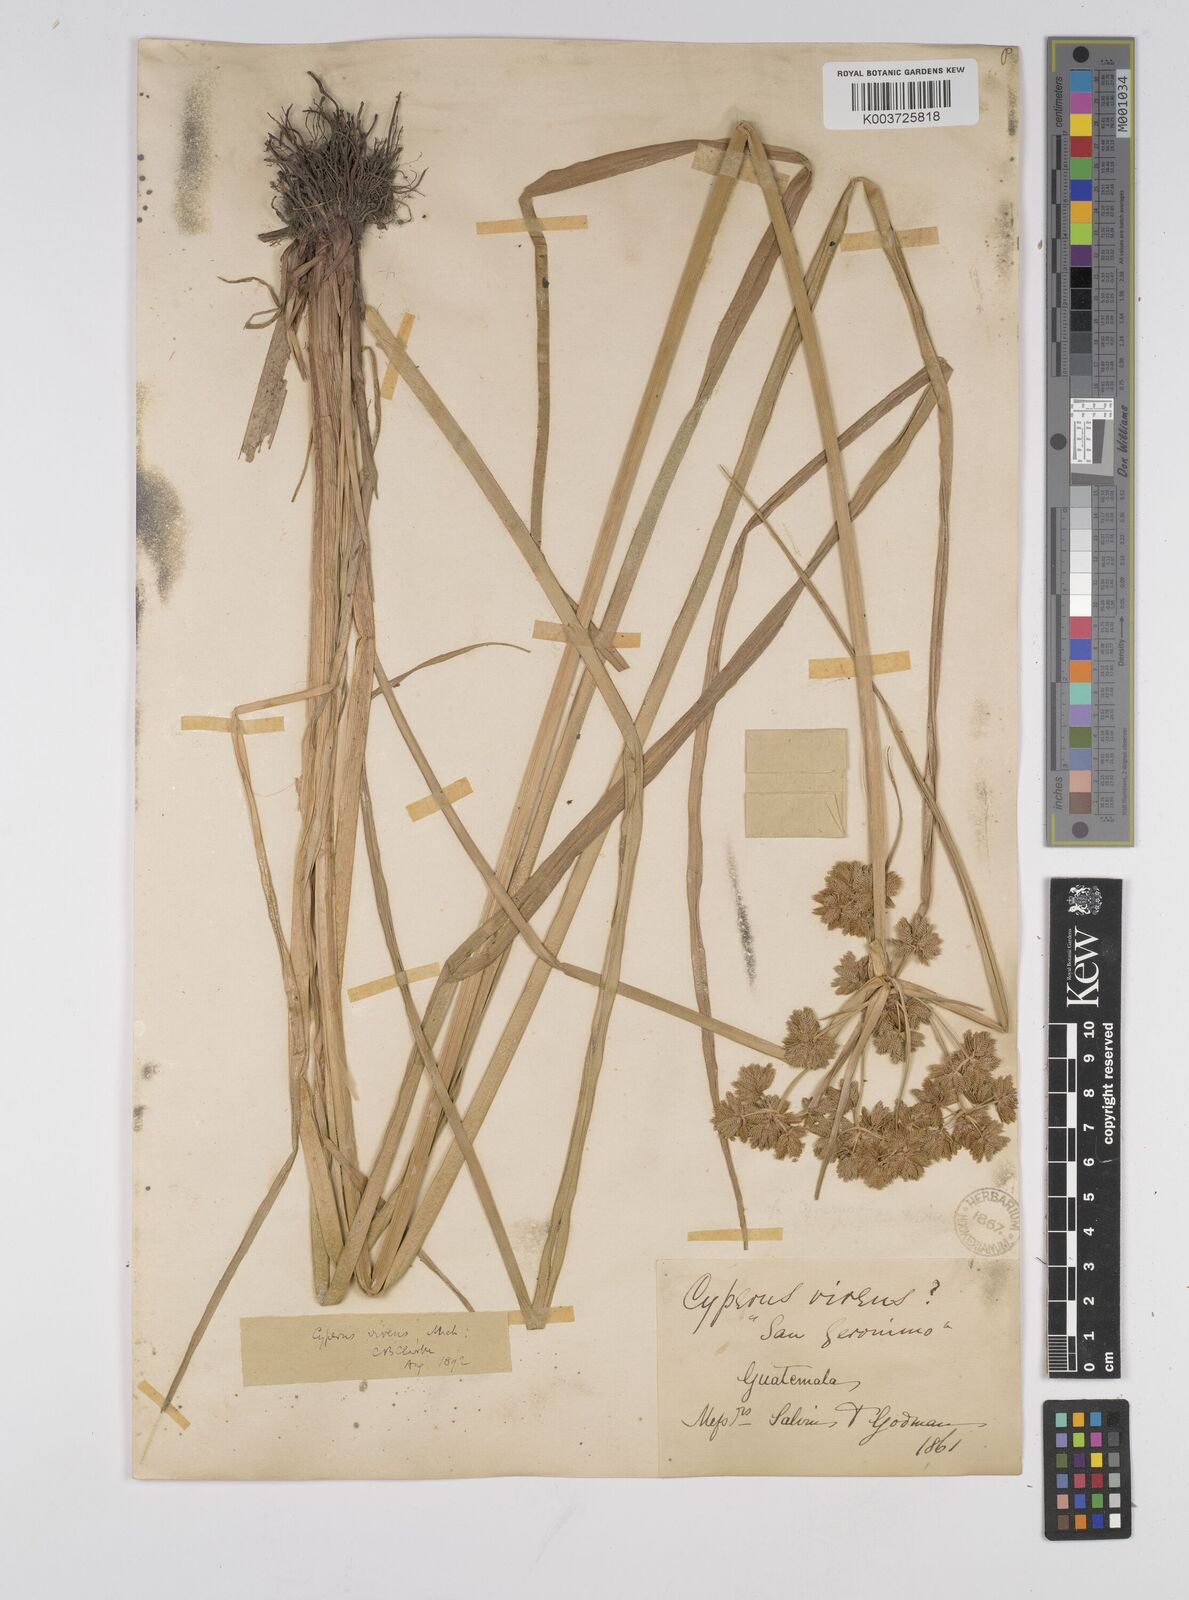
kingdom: Plantae
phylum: Tracheophyta
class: Liliopsida
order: Poales
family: Cyperaceae
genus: Cyperus
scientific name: Cyperus virens
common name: Green flatsedge
